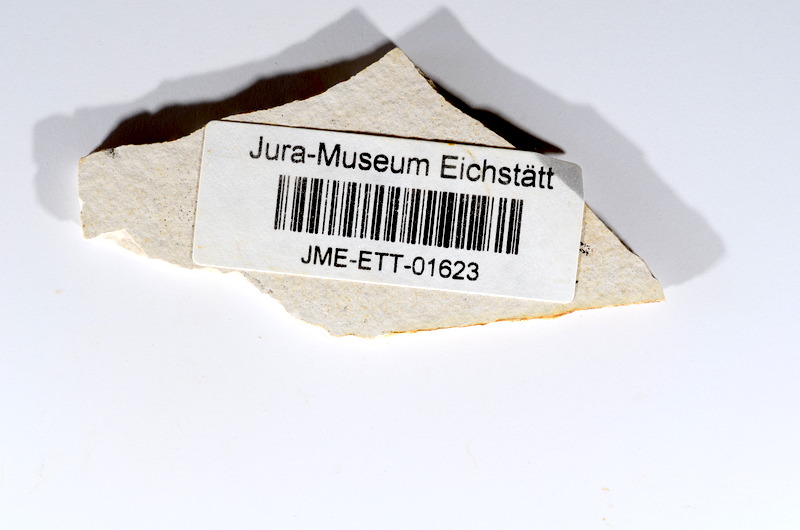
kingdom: Animalia
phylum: Chordata
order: Salmoniformes
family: Orthogonikleithridae
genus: Orthogonikleithrus
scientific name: Orthogonikleithrus hoelli
